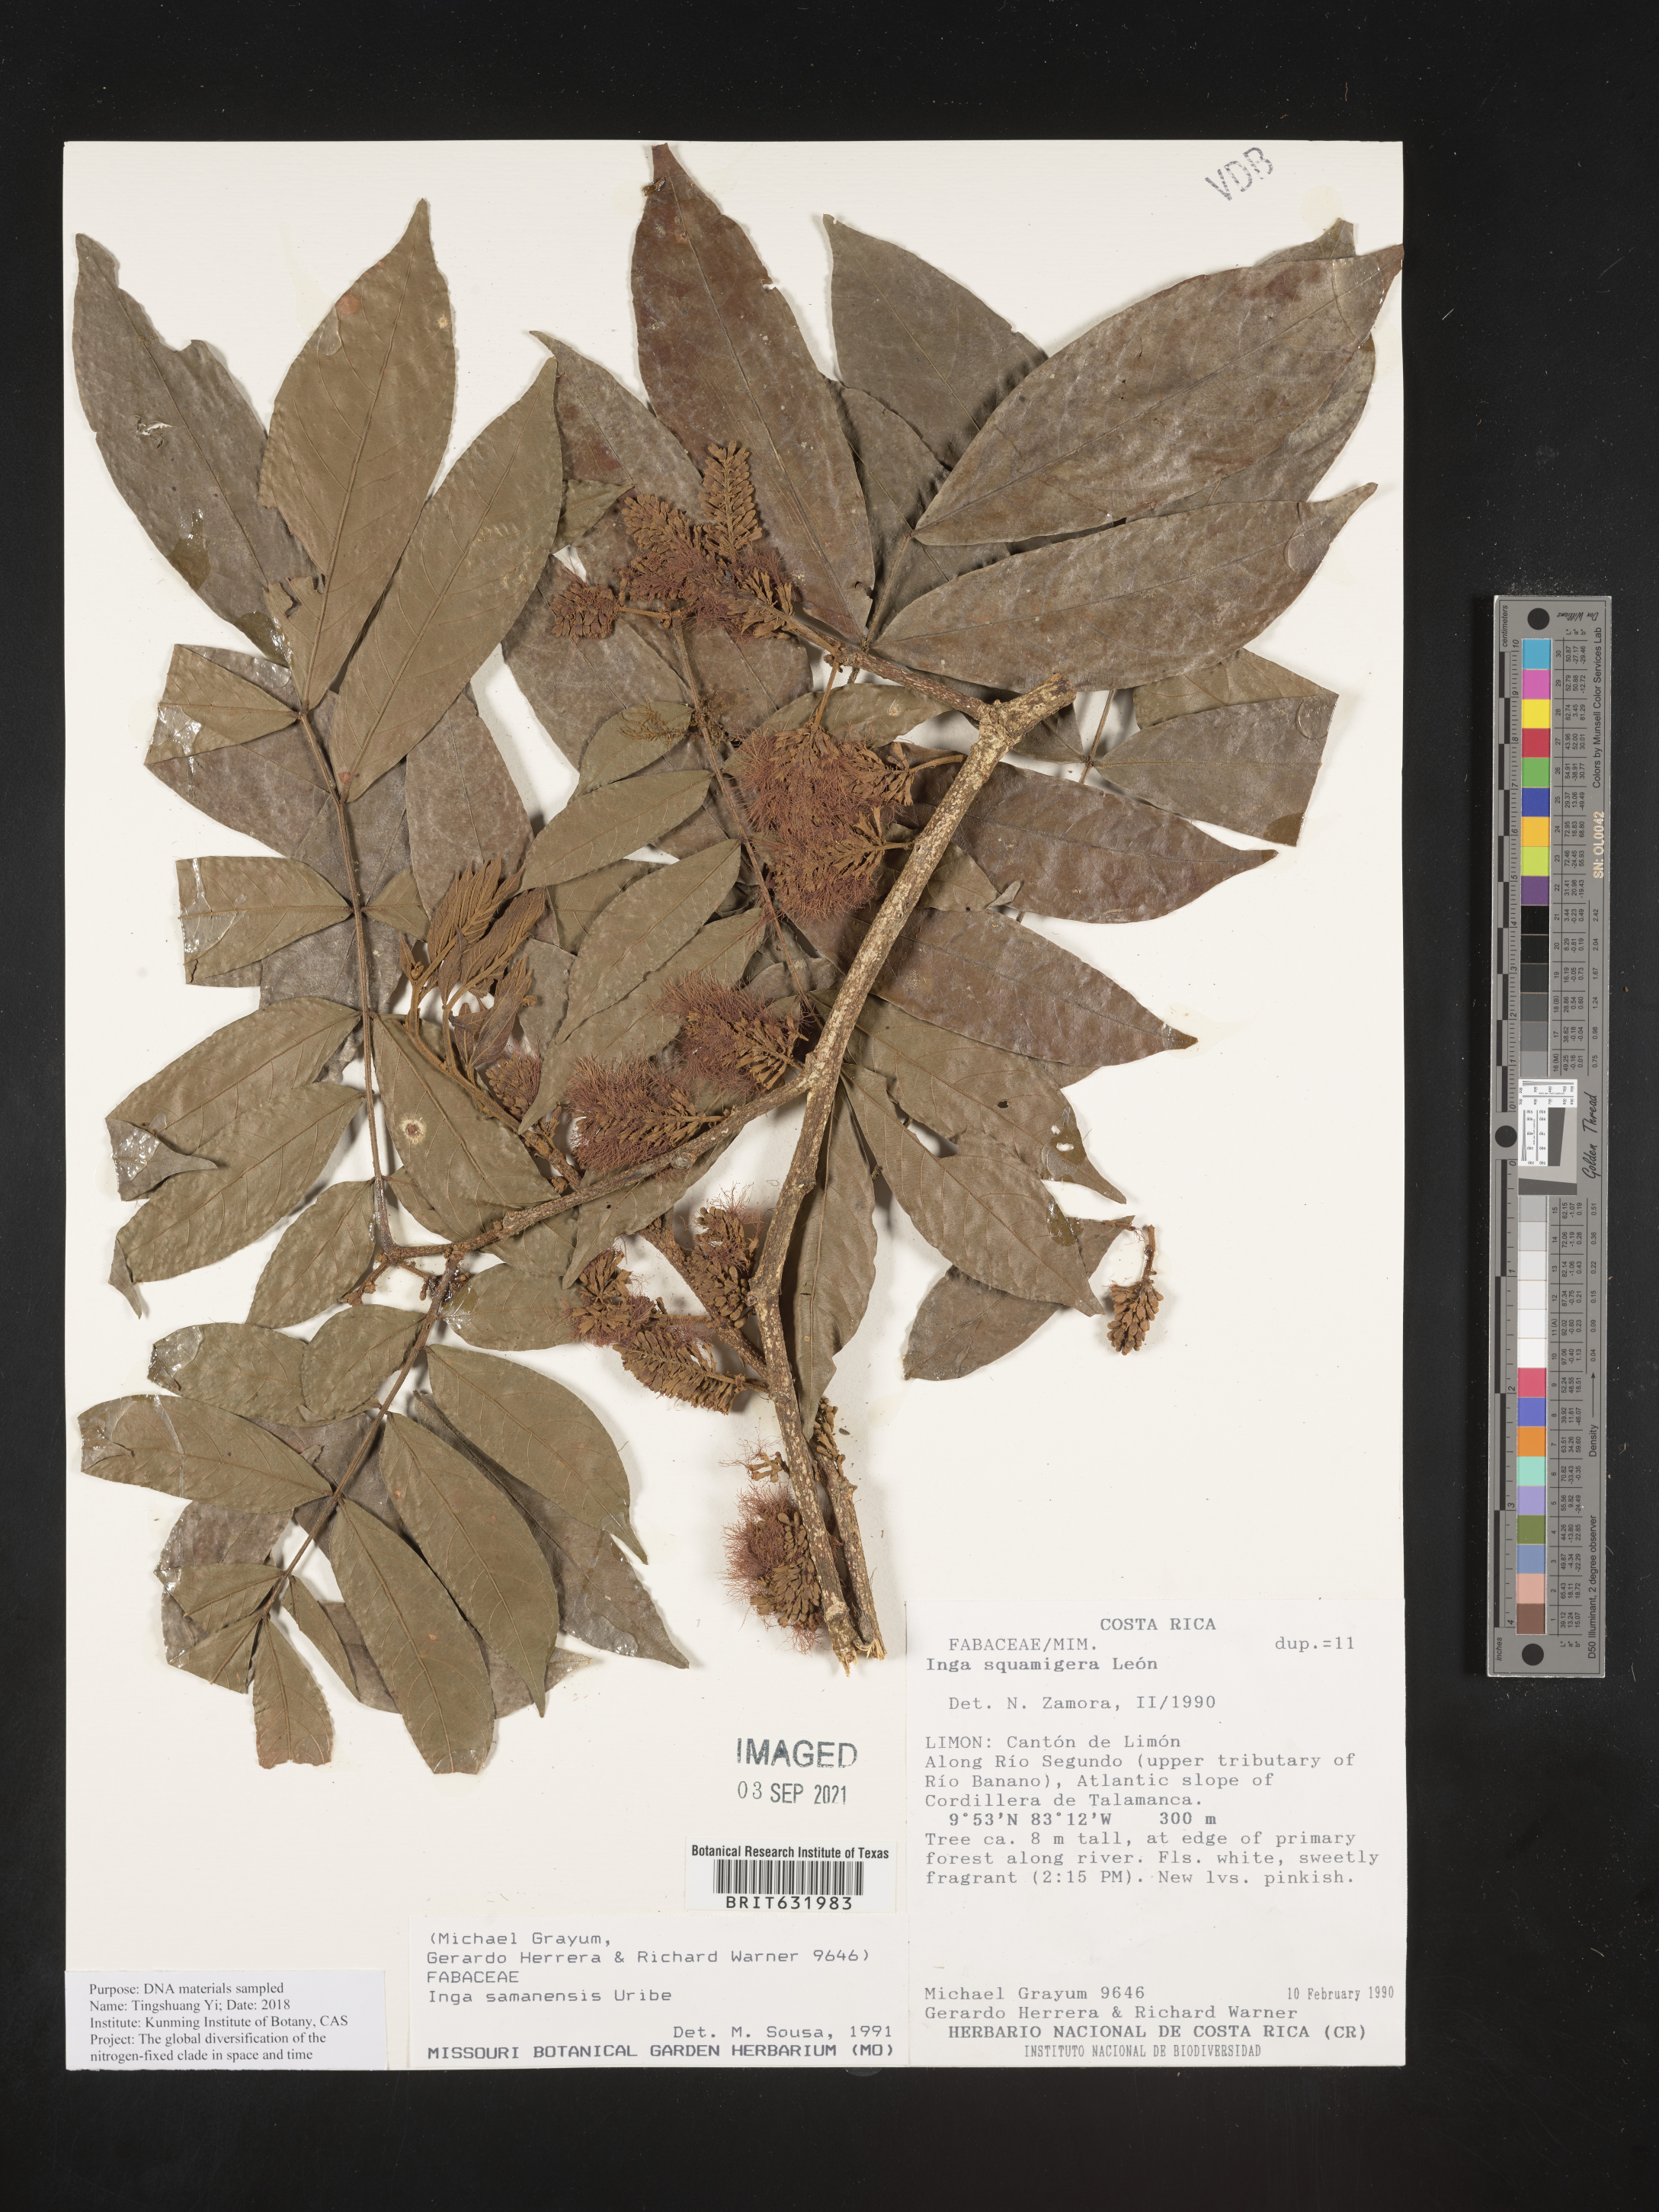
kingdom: Plantae
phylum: Tracheophyta
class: Magnoliopsida
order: Fabales
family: Fabaceae
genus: Inga
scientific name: Inga
